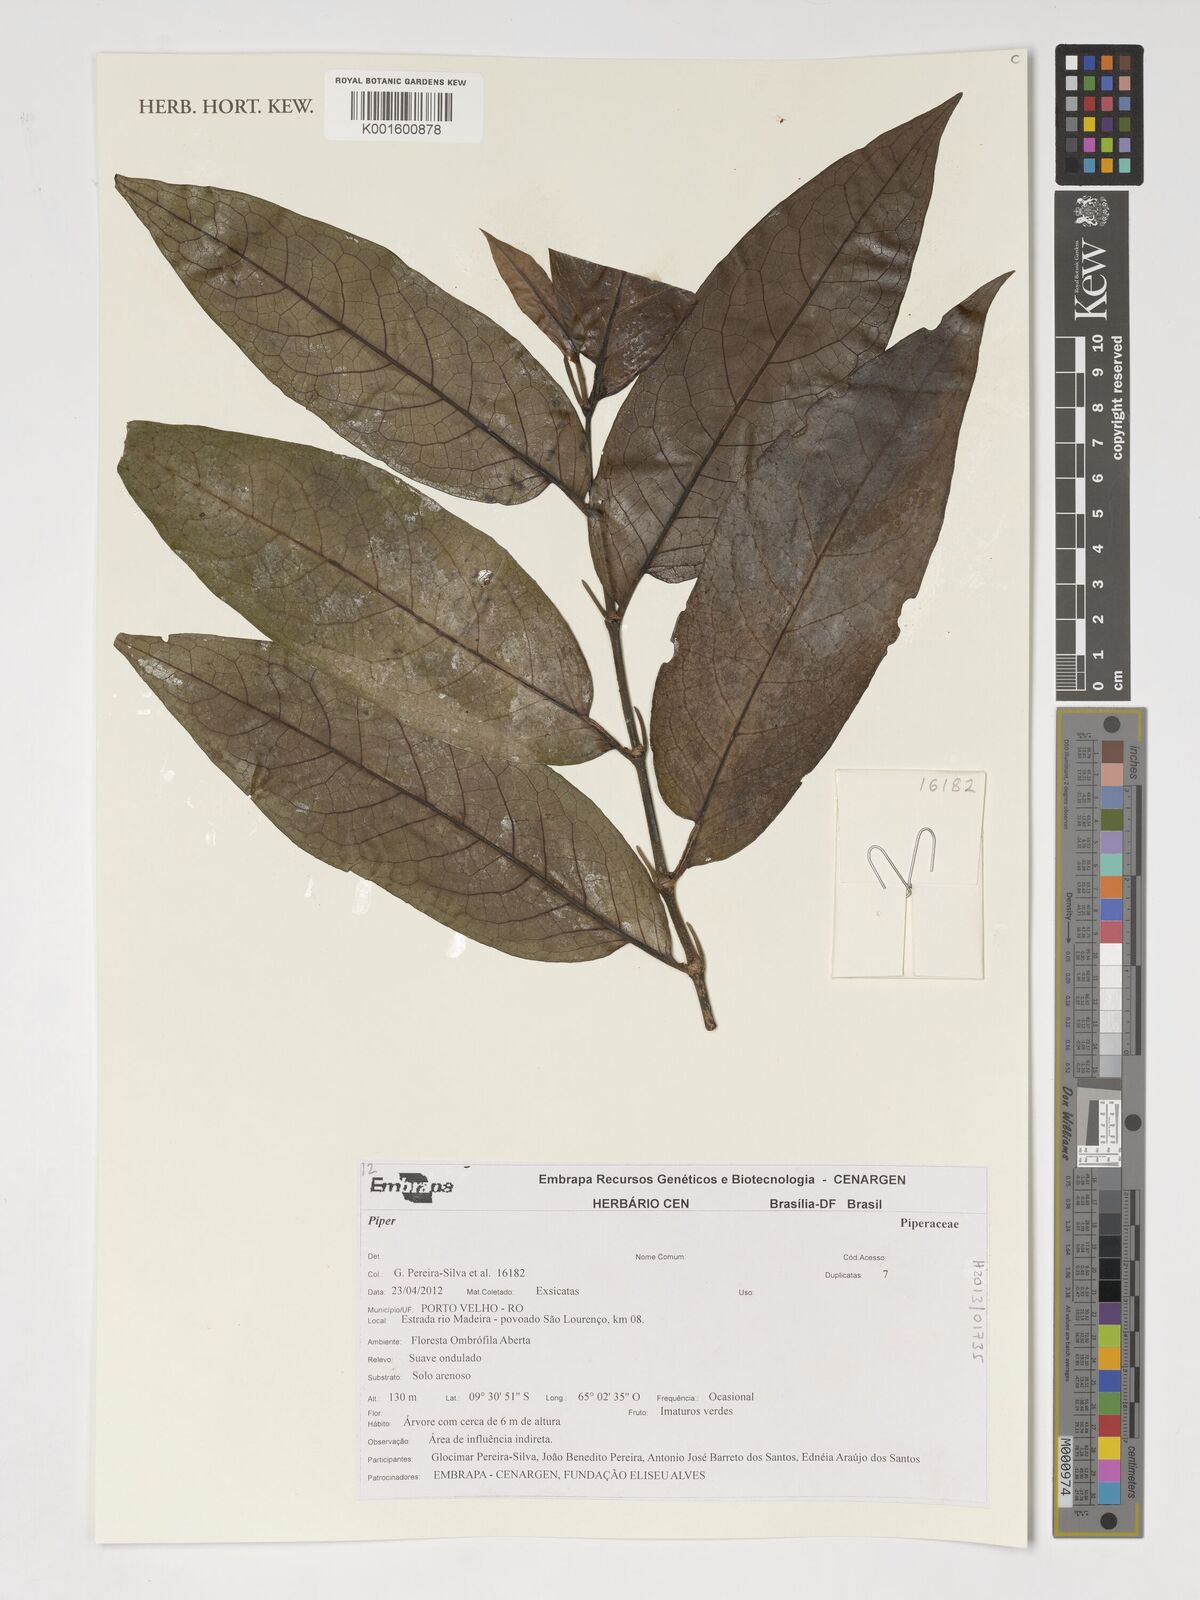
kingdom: Plantae
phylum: Tracheophyta
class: Magnoliopsida
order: Piperales
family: Piperaceae
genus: Piper
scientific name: Piper
